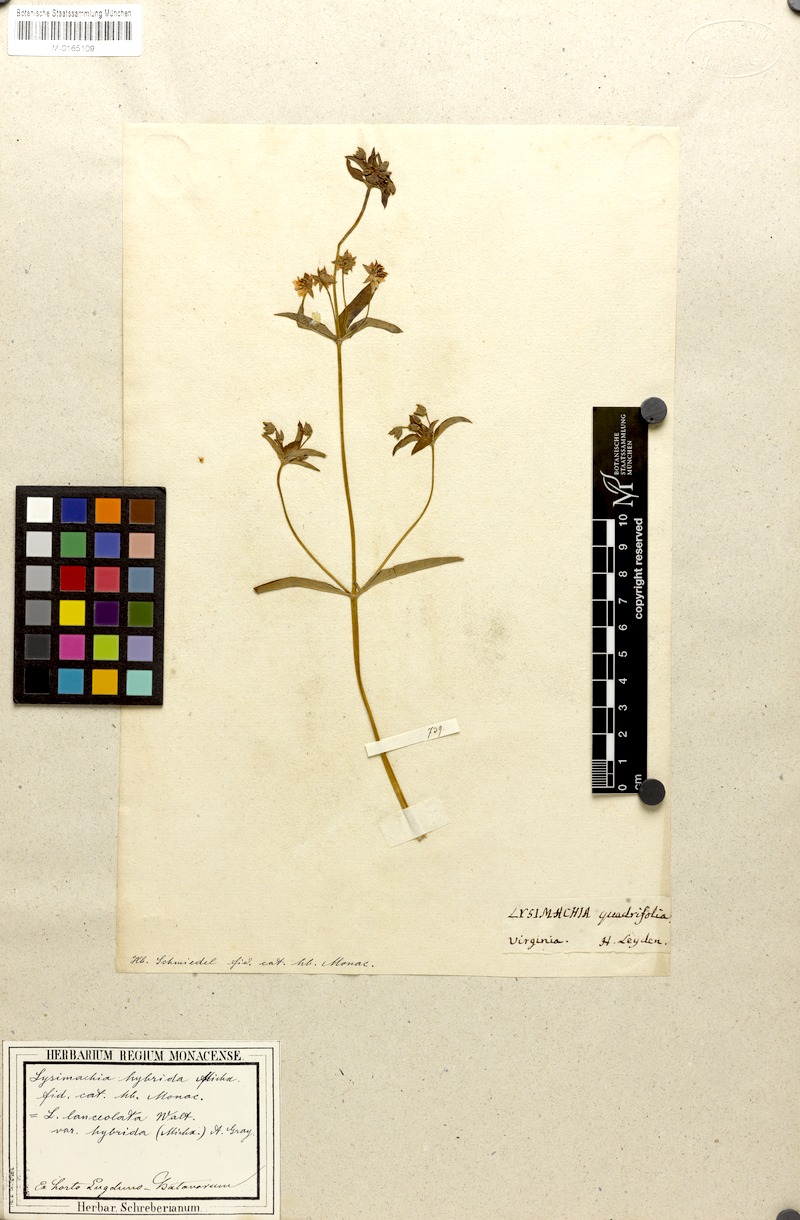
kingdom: Plantae
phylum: Tracheophyta
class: Magnoliopsida
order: Ericales
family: Primulaceae
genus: Lysimachia
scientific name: Lysimachia lanceolata
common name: Lance-leaved loosestrife
